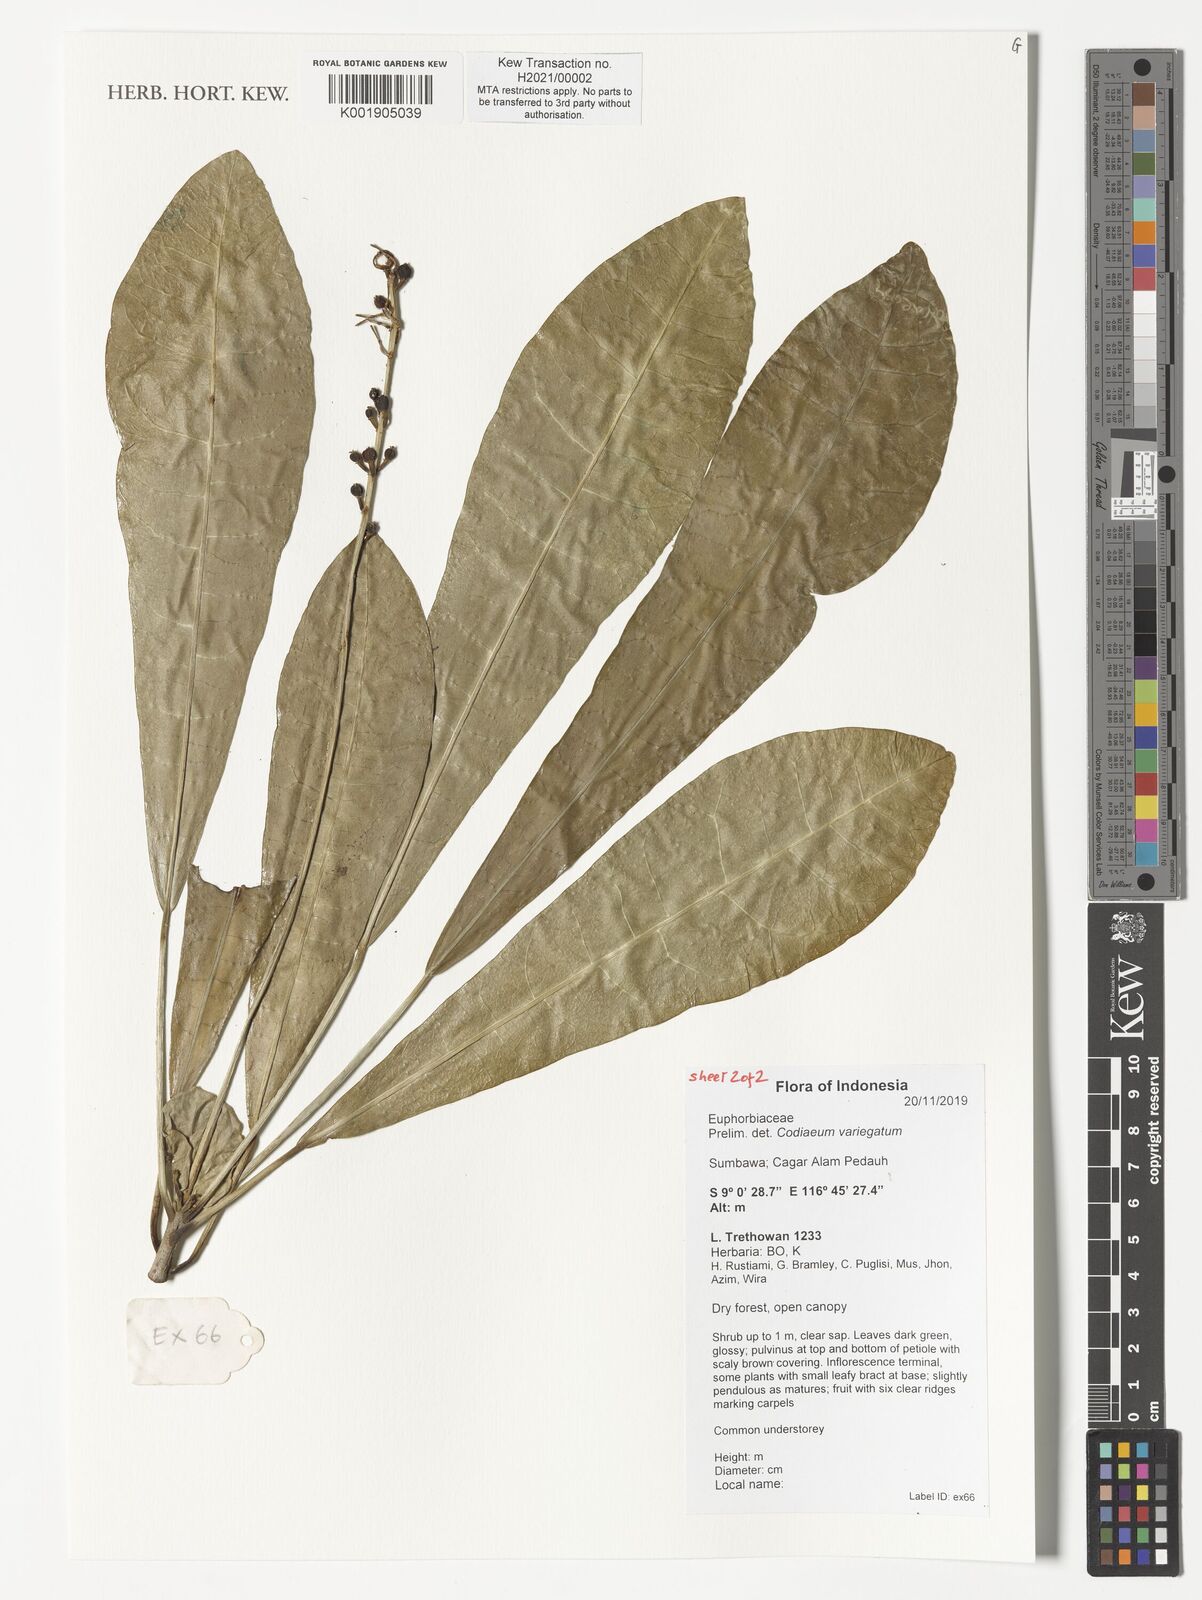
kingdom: Plantae
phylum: Tracheophyta
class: Magnoliopsida
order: Malpighiales
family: Euphorbiaceae
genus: Codiaeum
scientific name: Codiaeum variegatum
